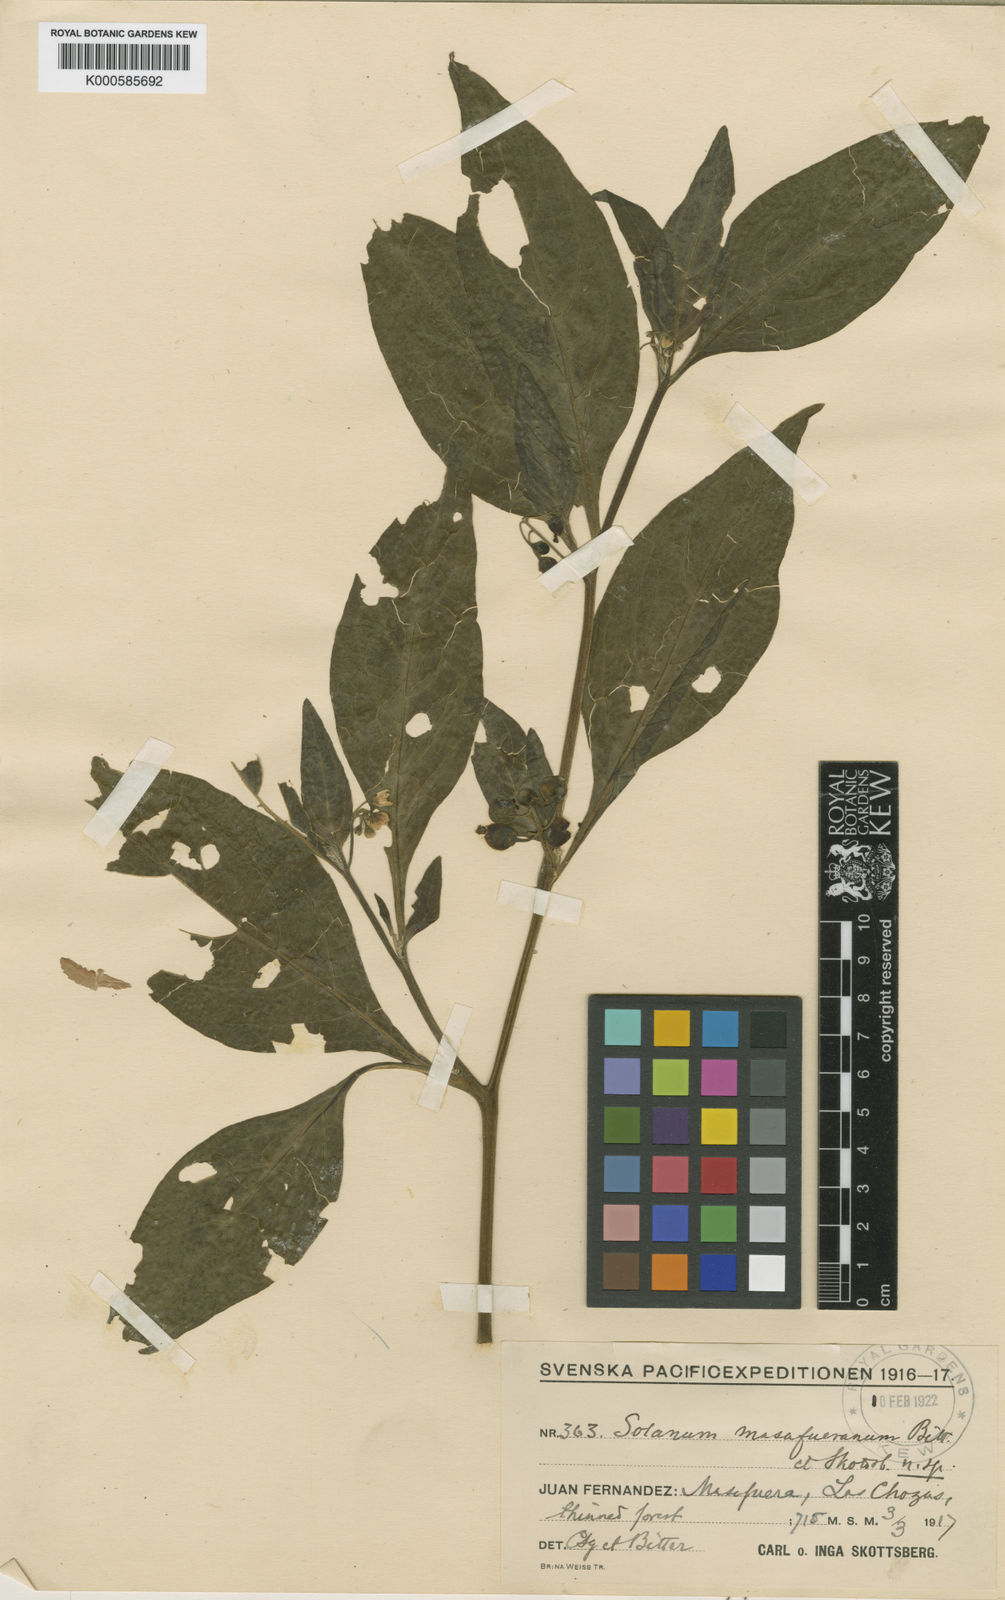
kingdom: Plantae
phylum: Tracheophyta
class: Magnoliopsida
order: Solanales
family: Solanaceae
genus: Solanum
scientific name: Solanum furcatum
